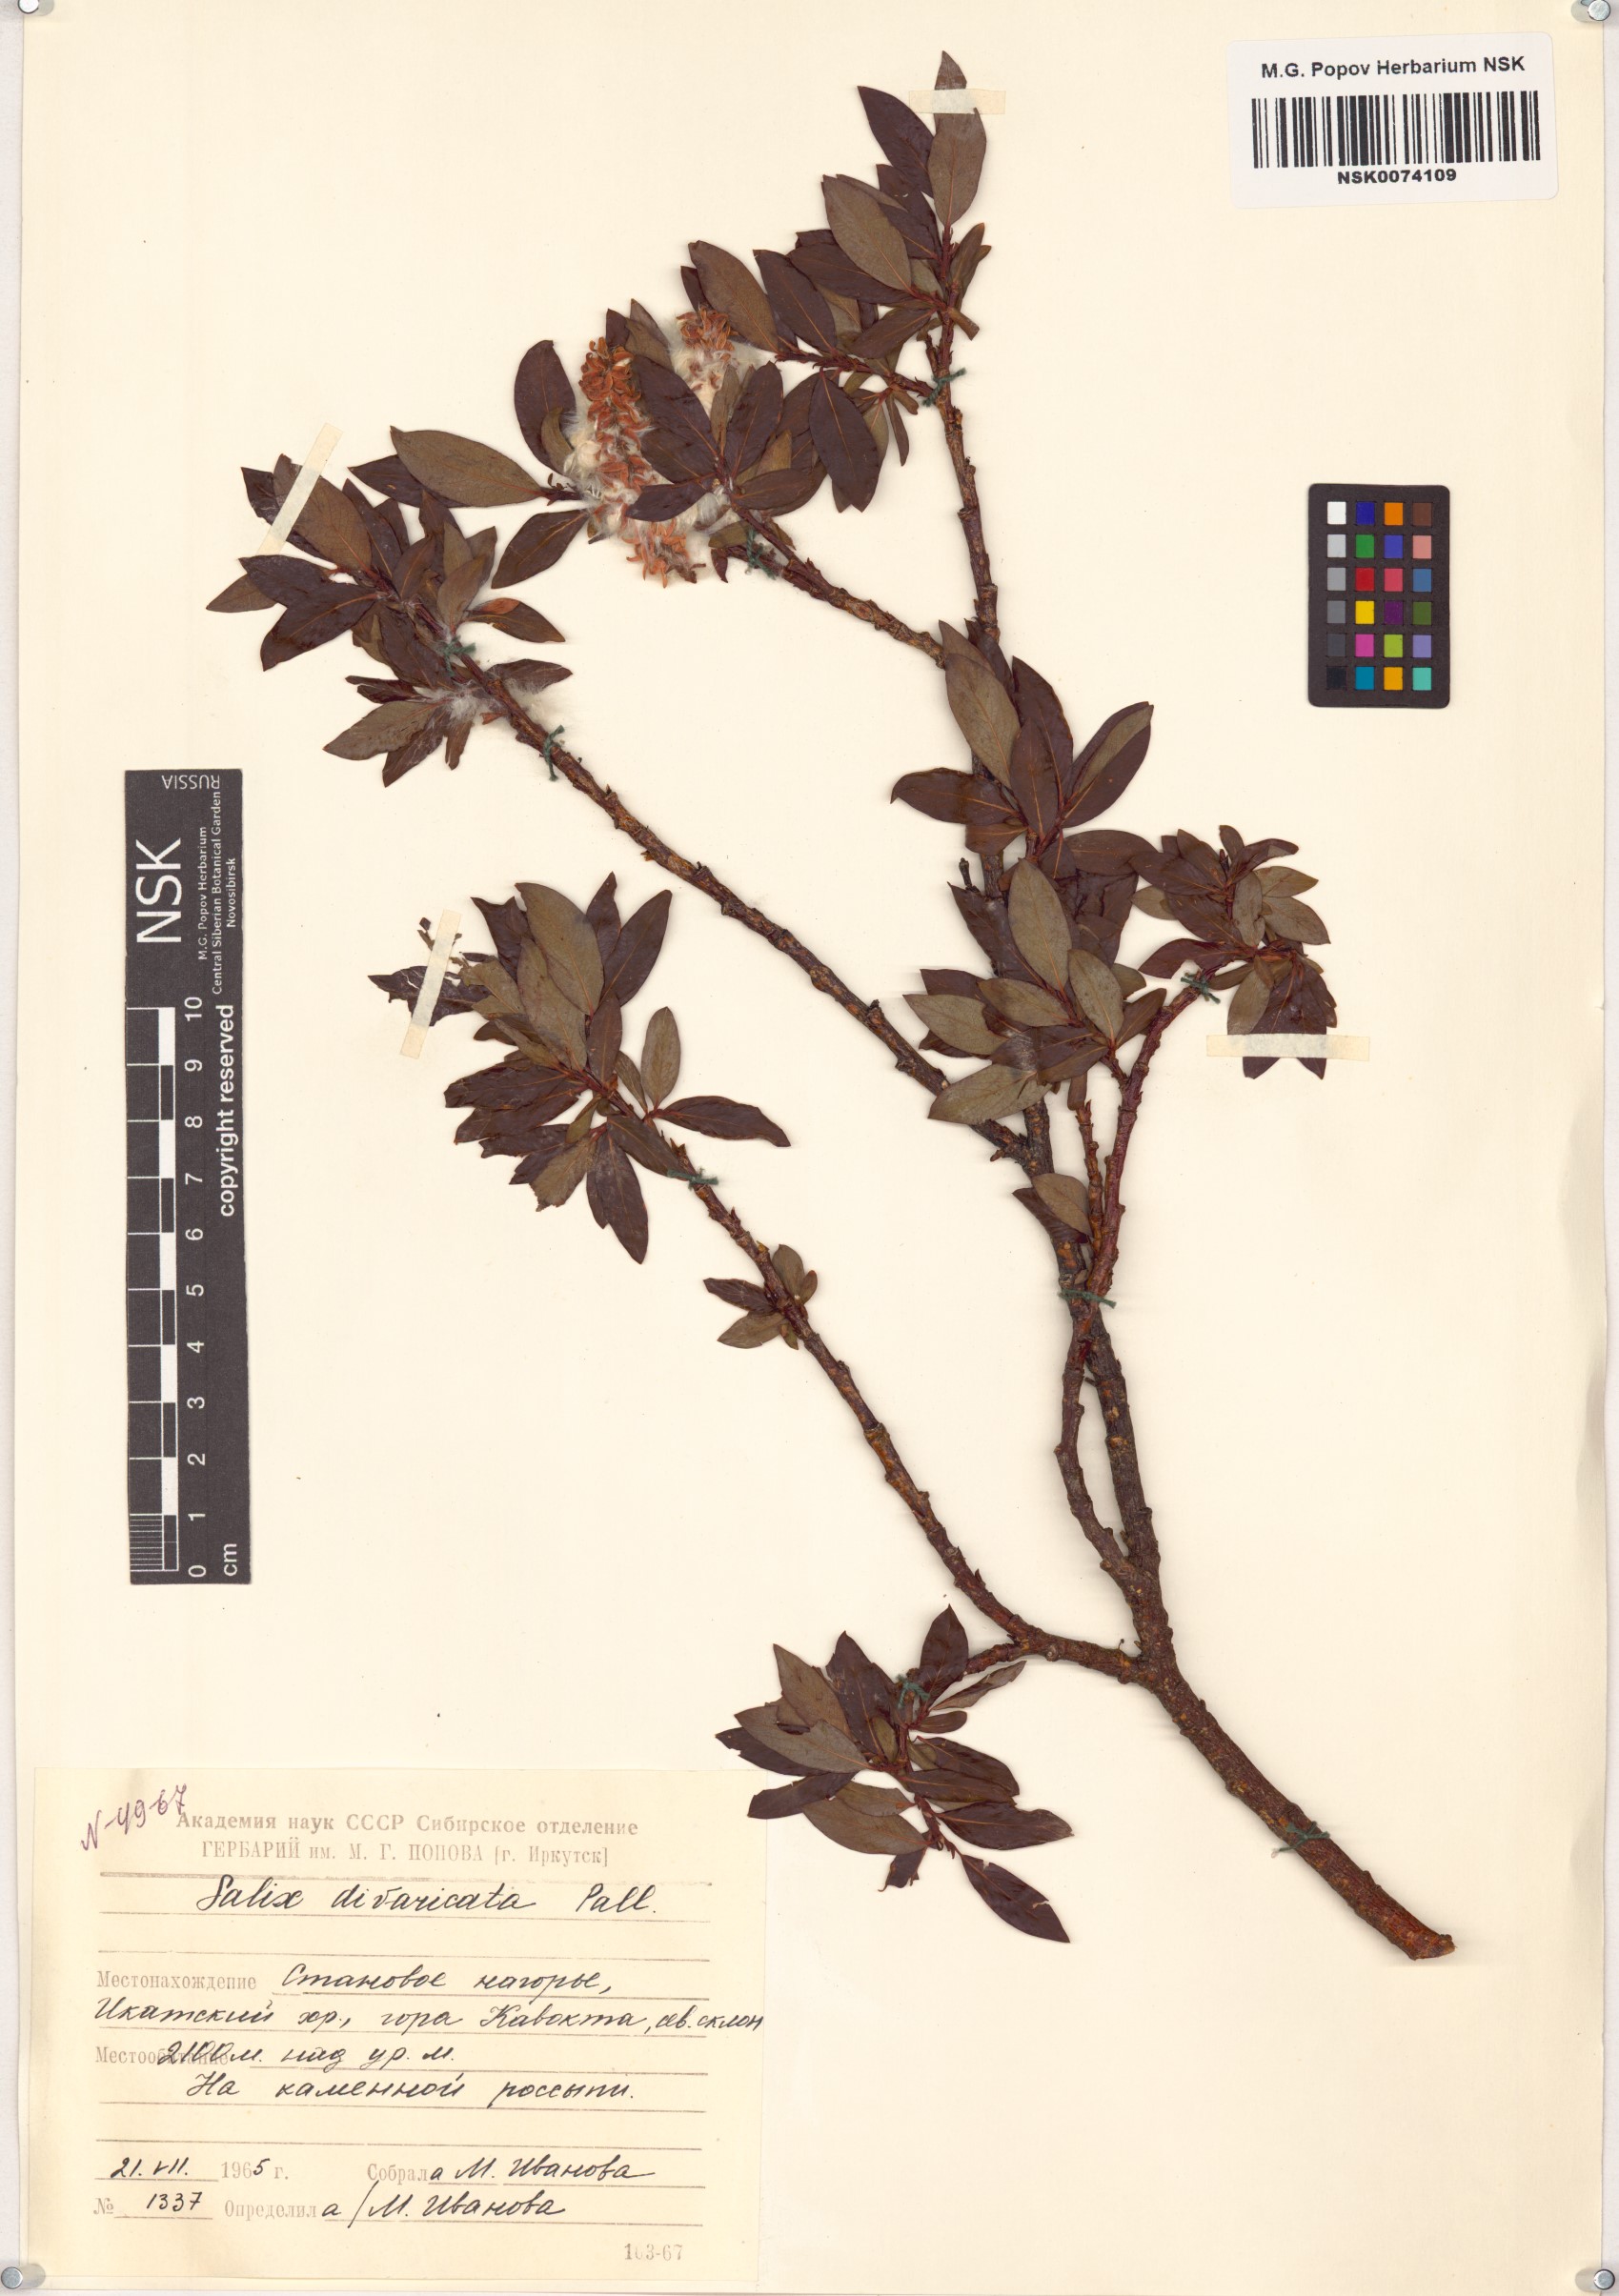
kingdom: Plantae
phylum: Tracheophyta
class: Magnoliopsida
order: Malpighiales
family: Salicaceae
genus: Salix
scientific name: Salix divaricata
